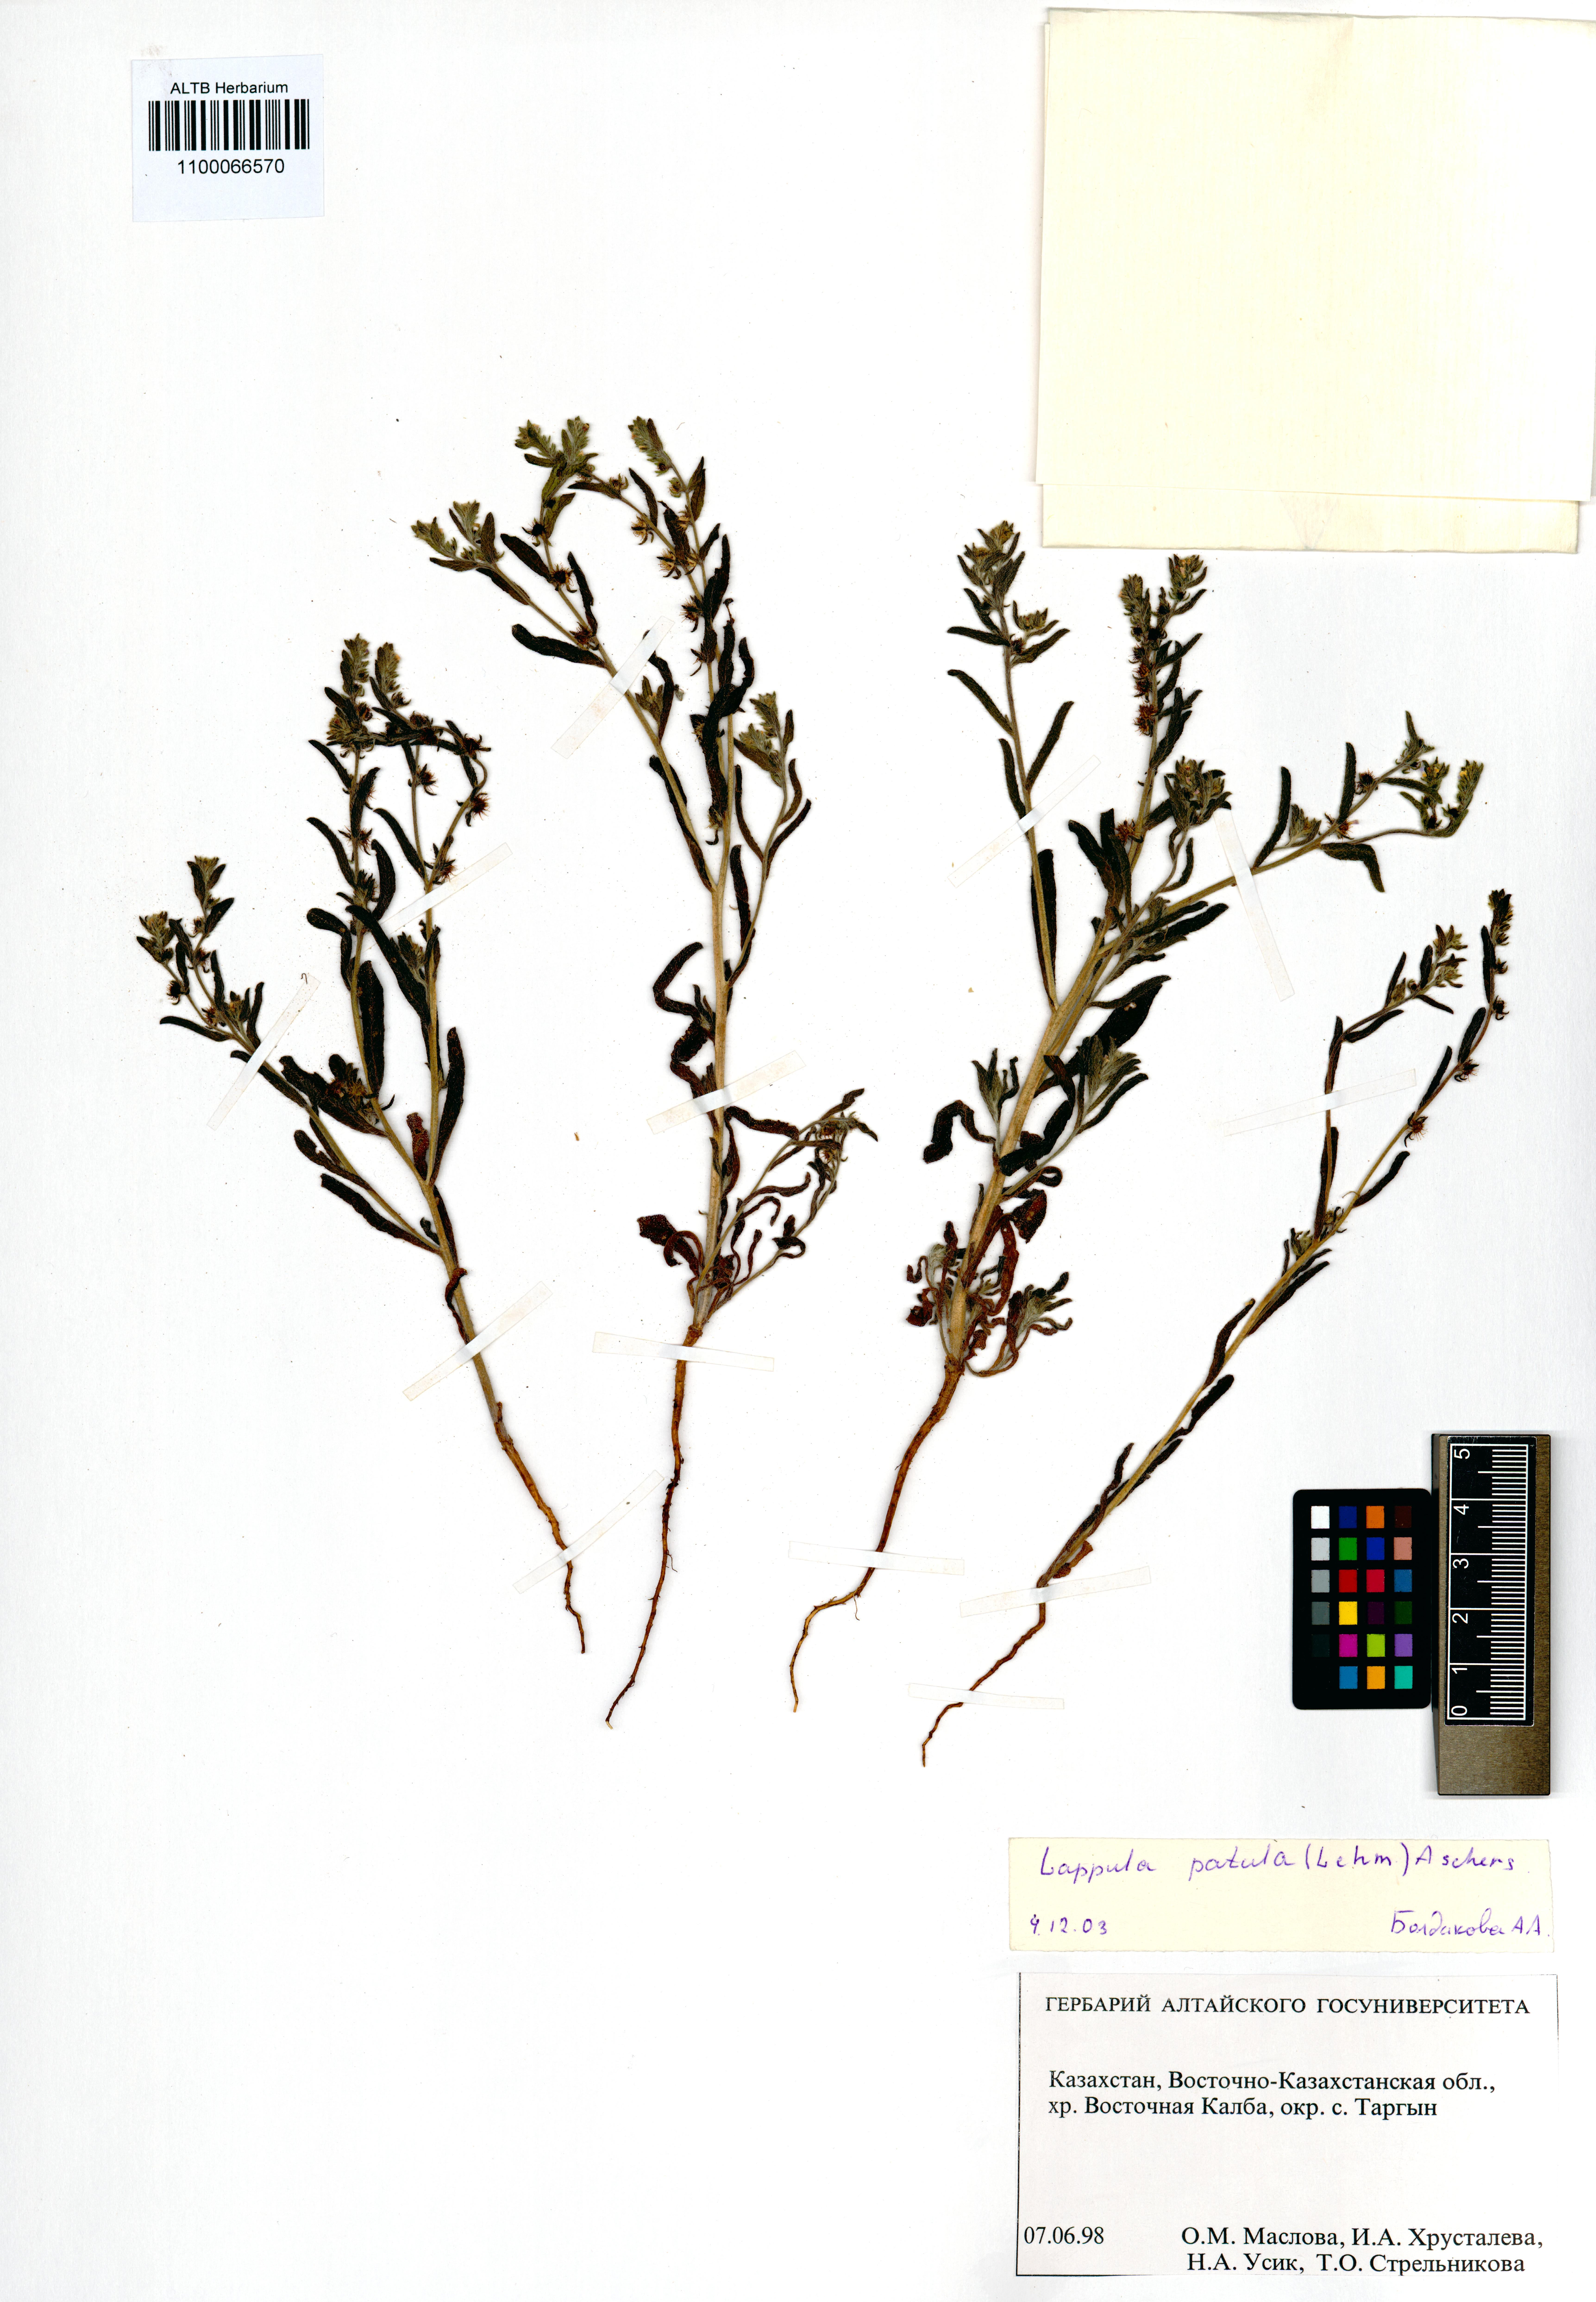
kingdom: Plantae
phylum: Tracheophyta
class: Magnoliopsida
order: Boraginales
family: Boraginaceae
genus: Lappula
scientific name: Lappula patula
